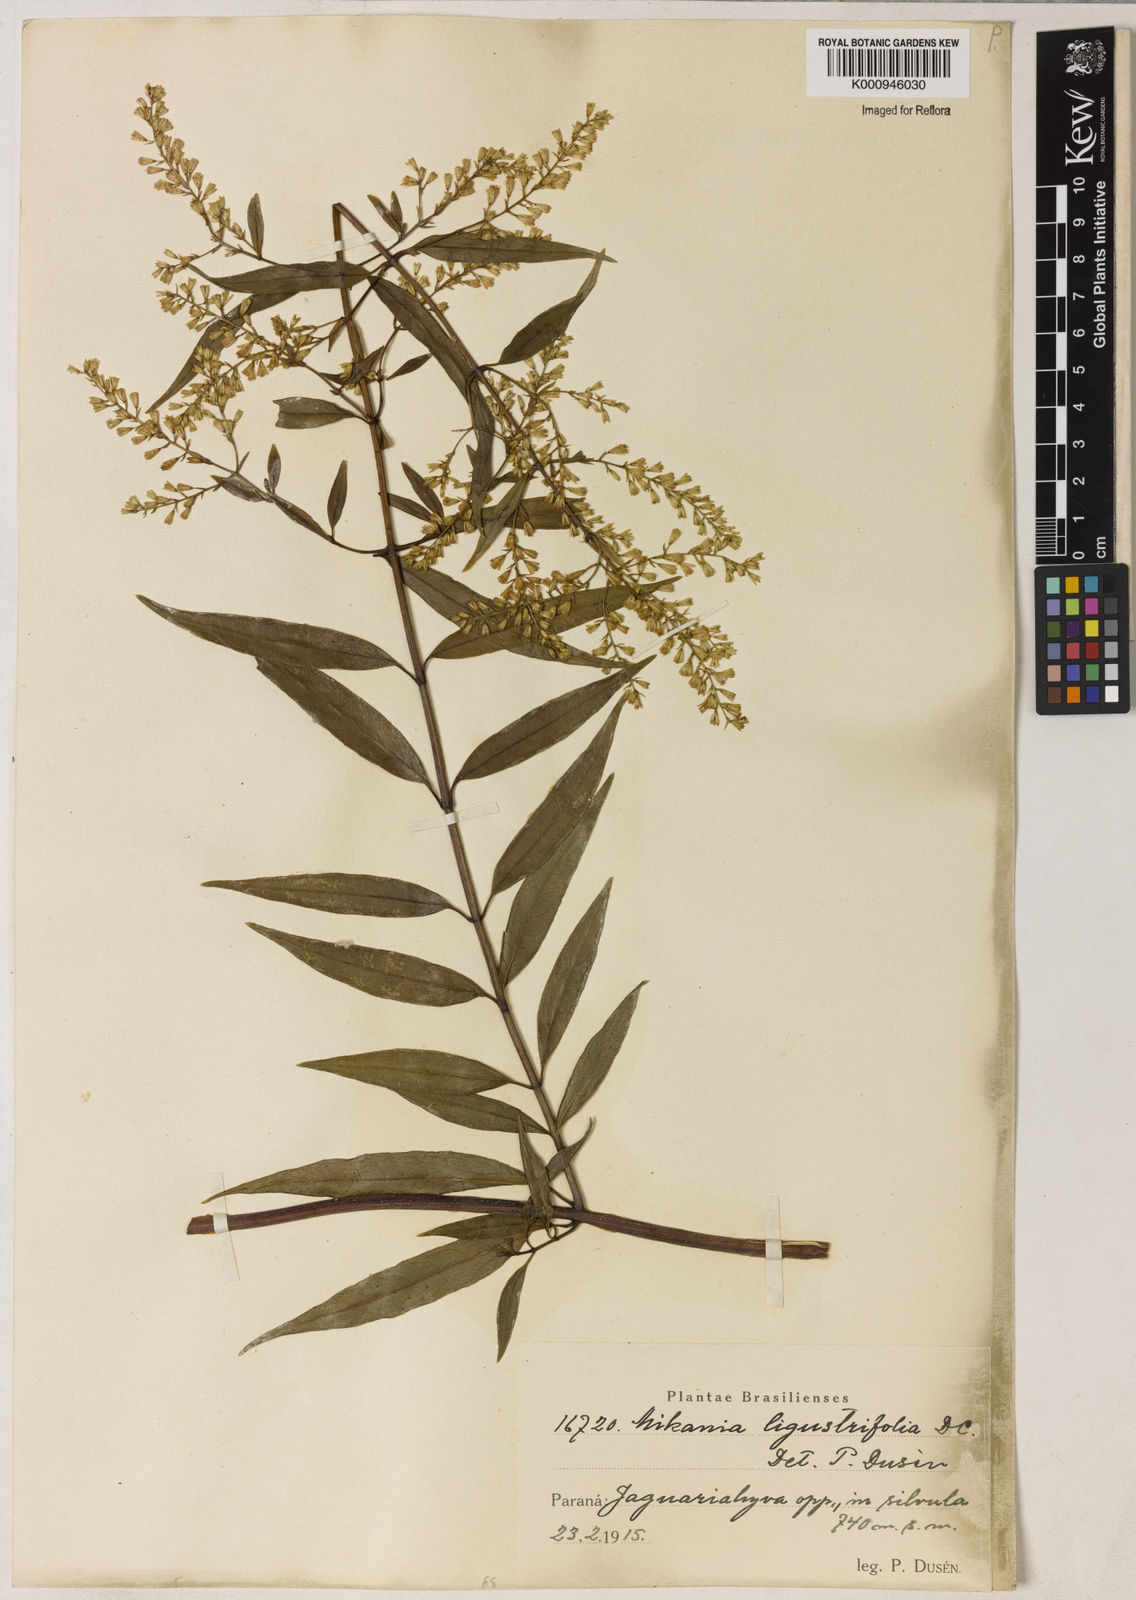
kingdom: Plantae
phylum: Tracheophyta
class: Magnoliopsida
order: Asterales
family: Asteraceae
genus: Mikania
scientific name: Mikania ligustrifolia
